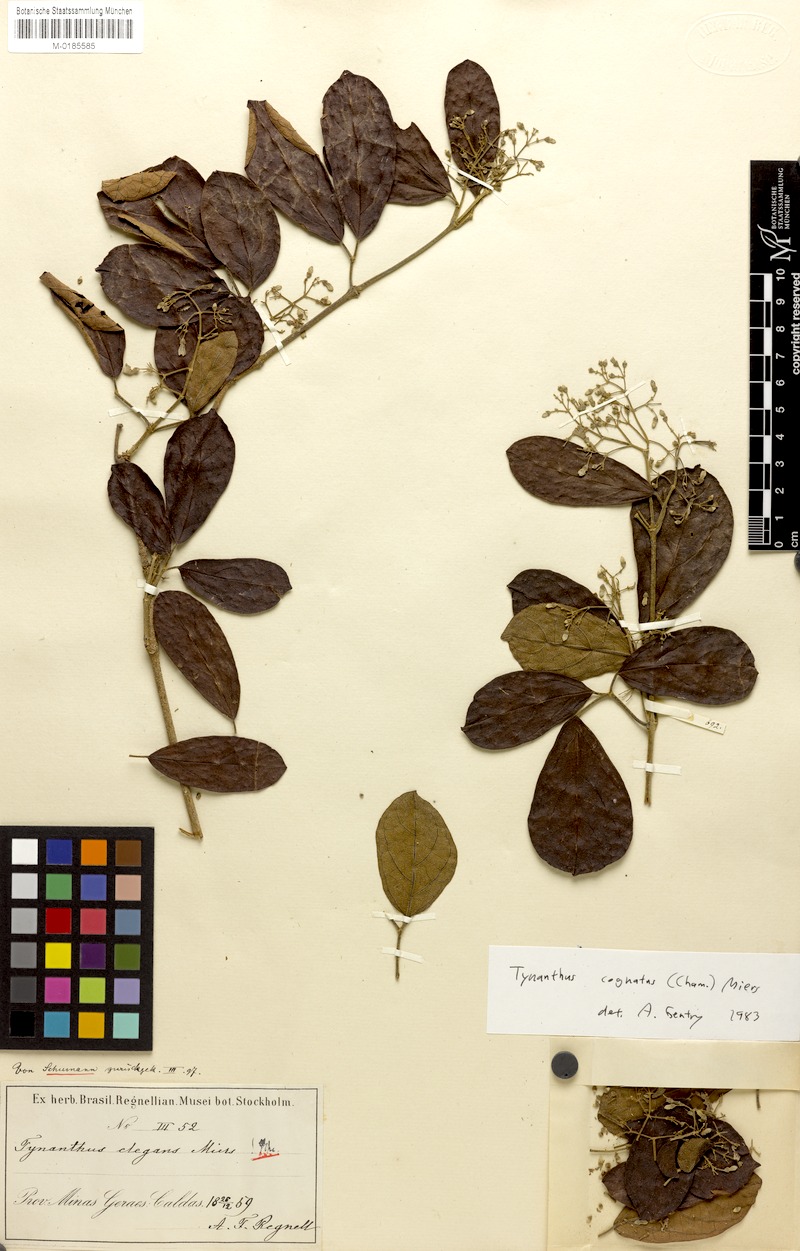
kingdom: Plantae
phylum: Tracheophyta
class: Magnoliopsida
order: Lamiales
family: Bignoniaceae
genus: Tynanthus
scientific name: Tynanthus cognatus
